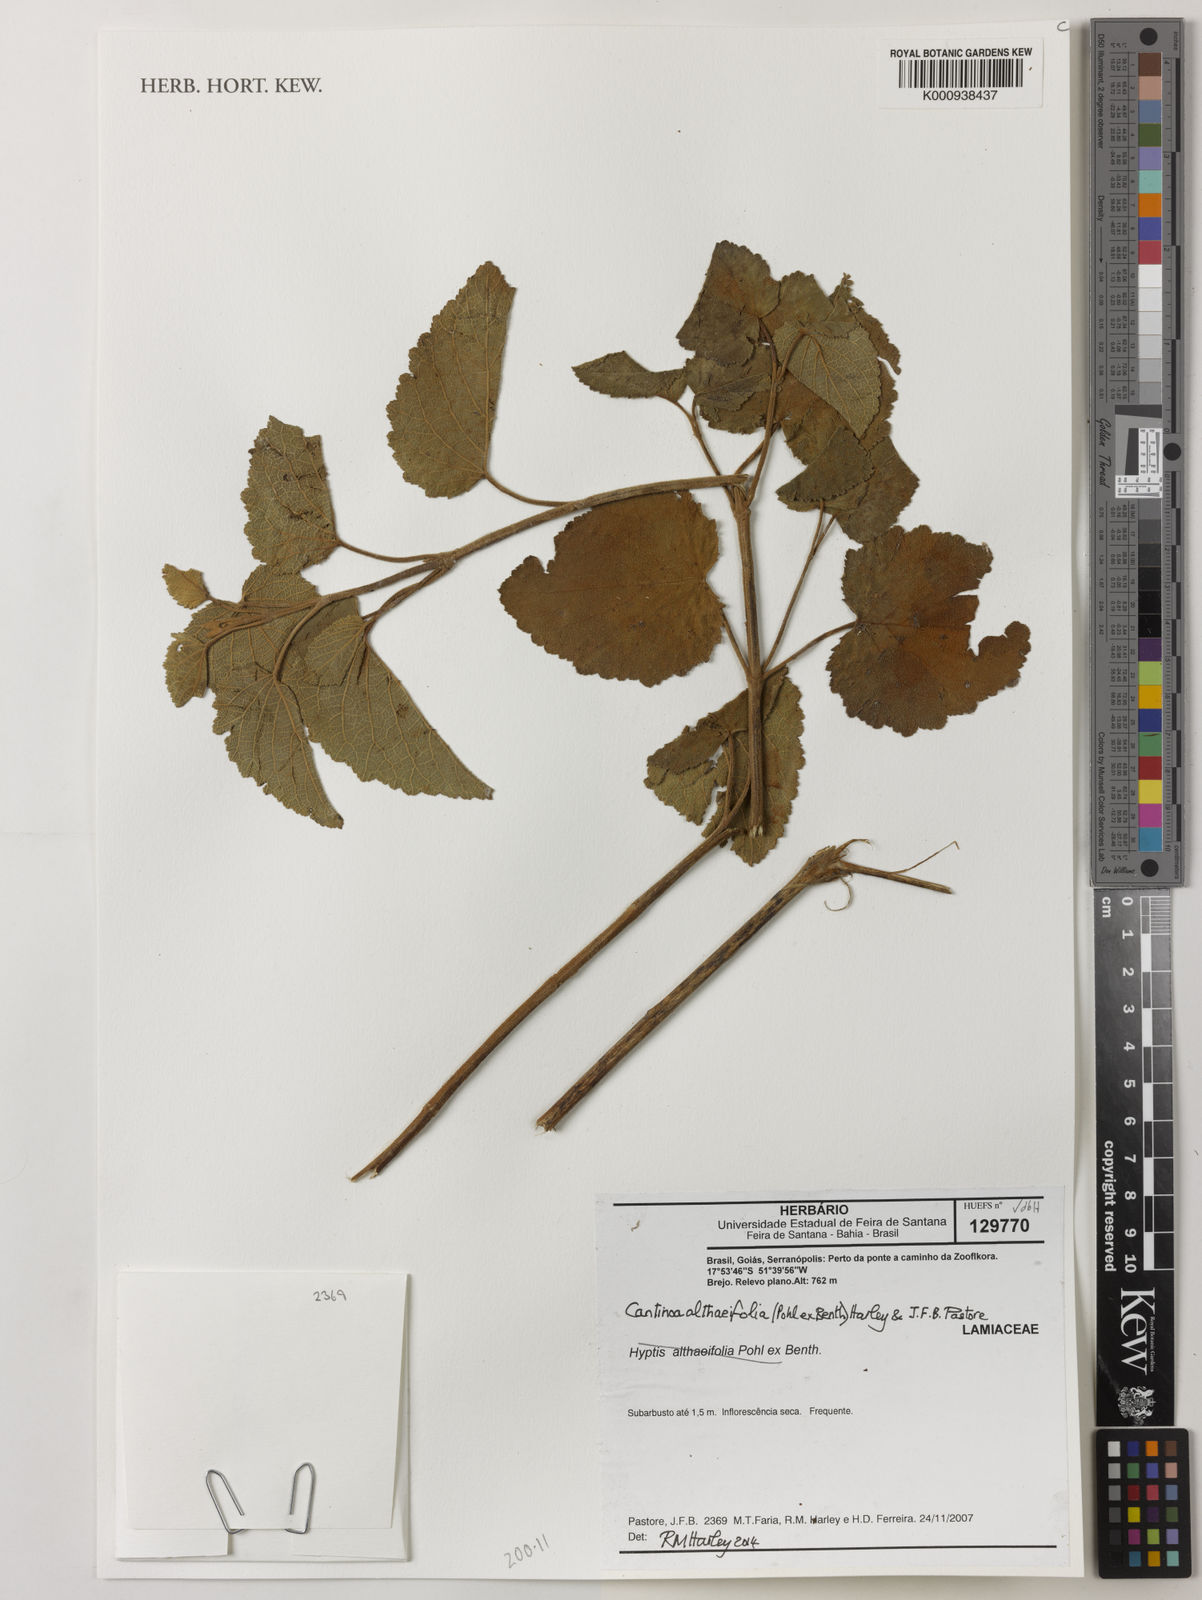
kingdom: Plantae
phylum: Tracheophyta
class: Magnoliopsida
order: Lamiales
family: Lamiaceae
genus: Cantinoa
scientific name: Cantinoa althaeifolia
